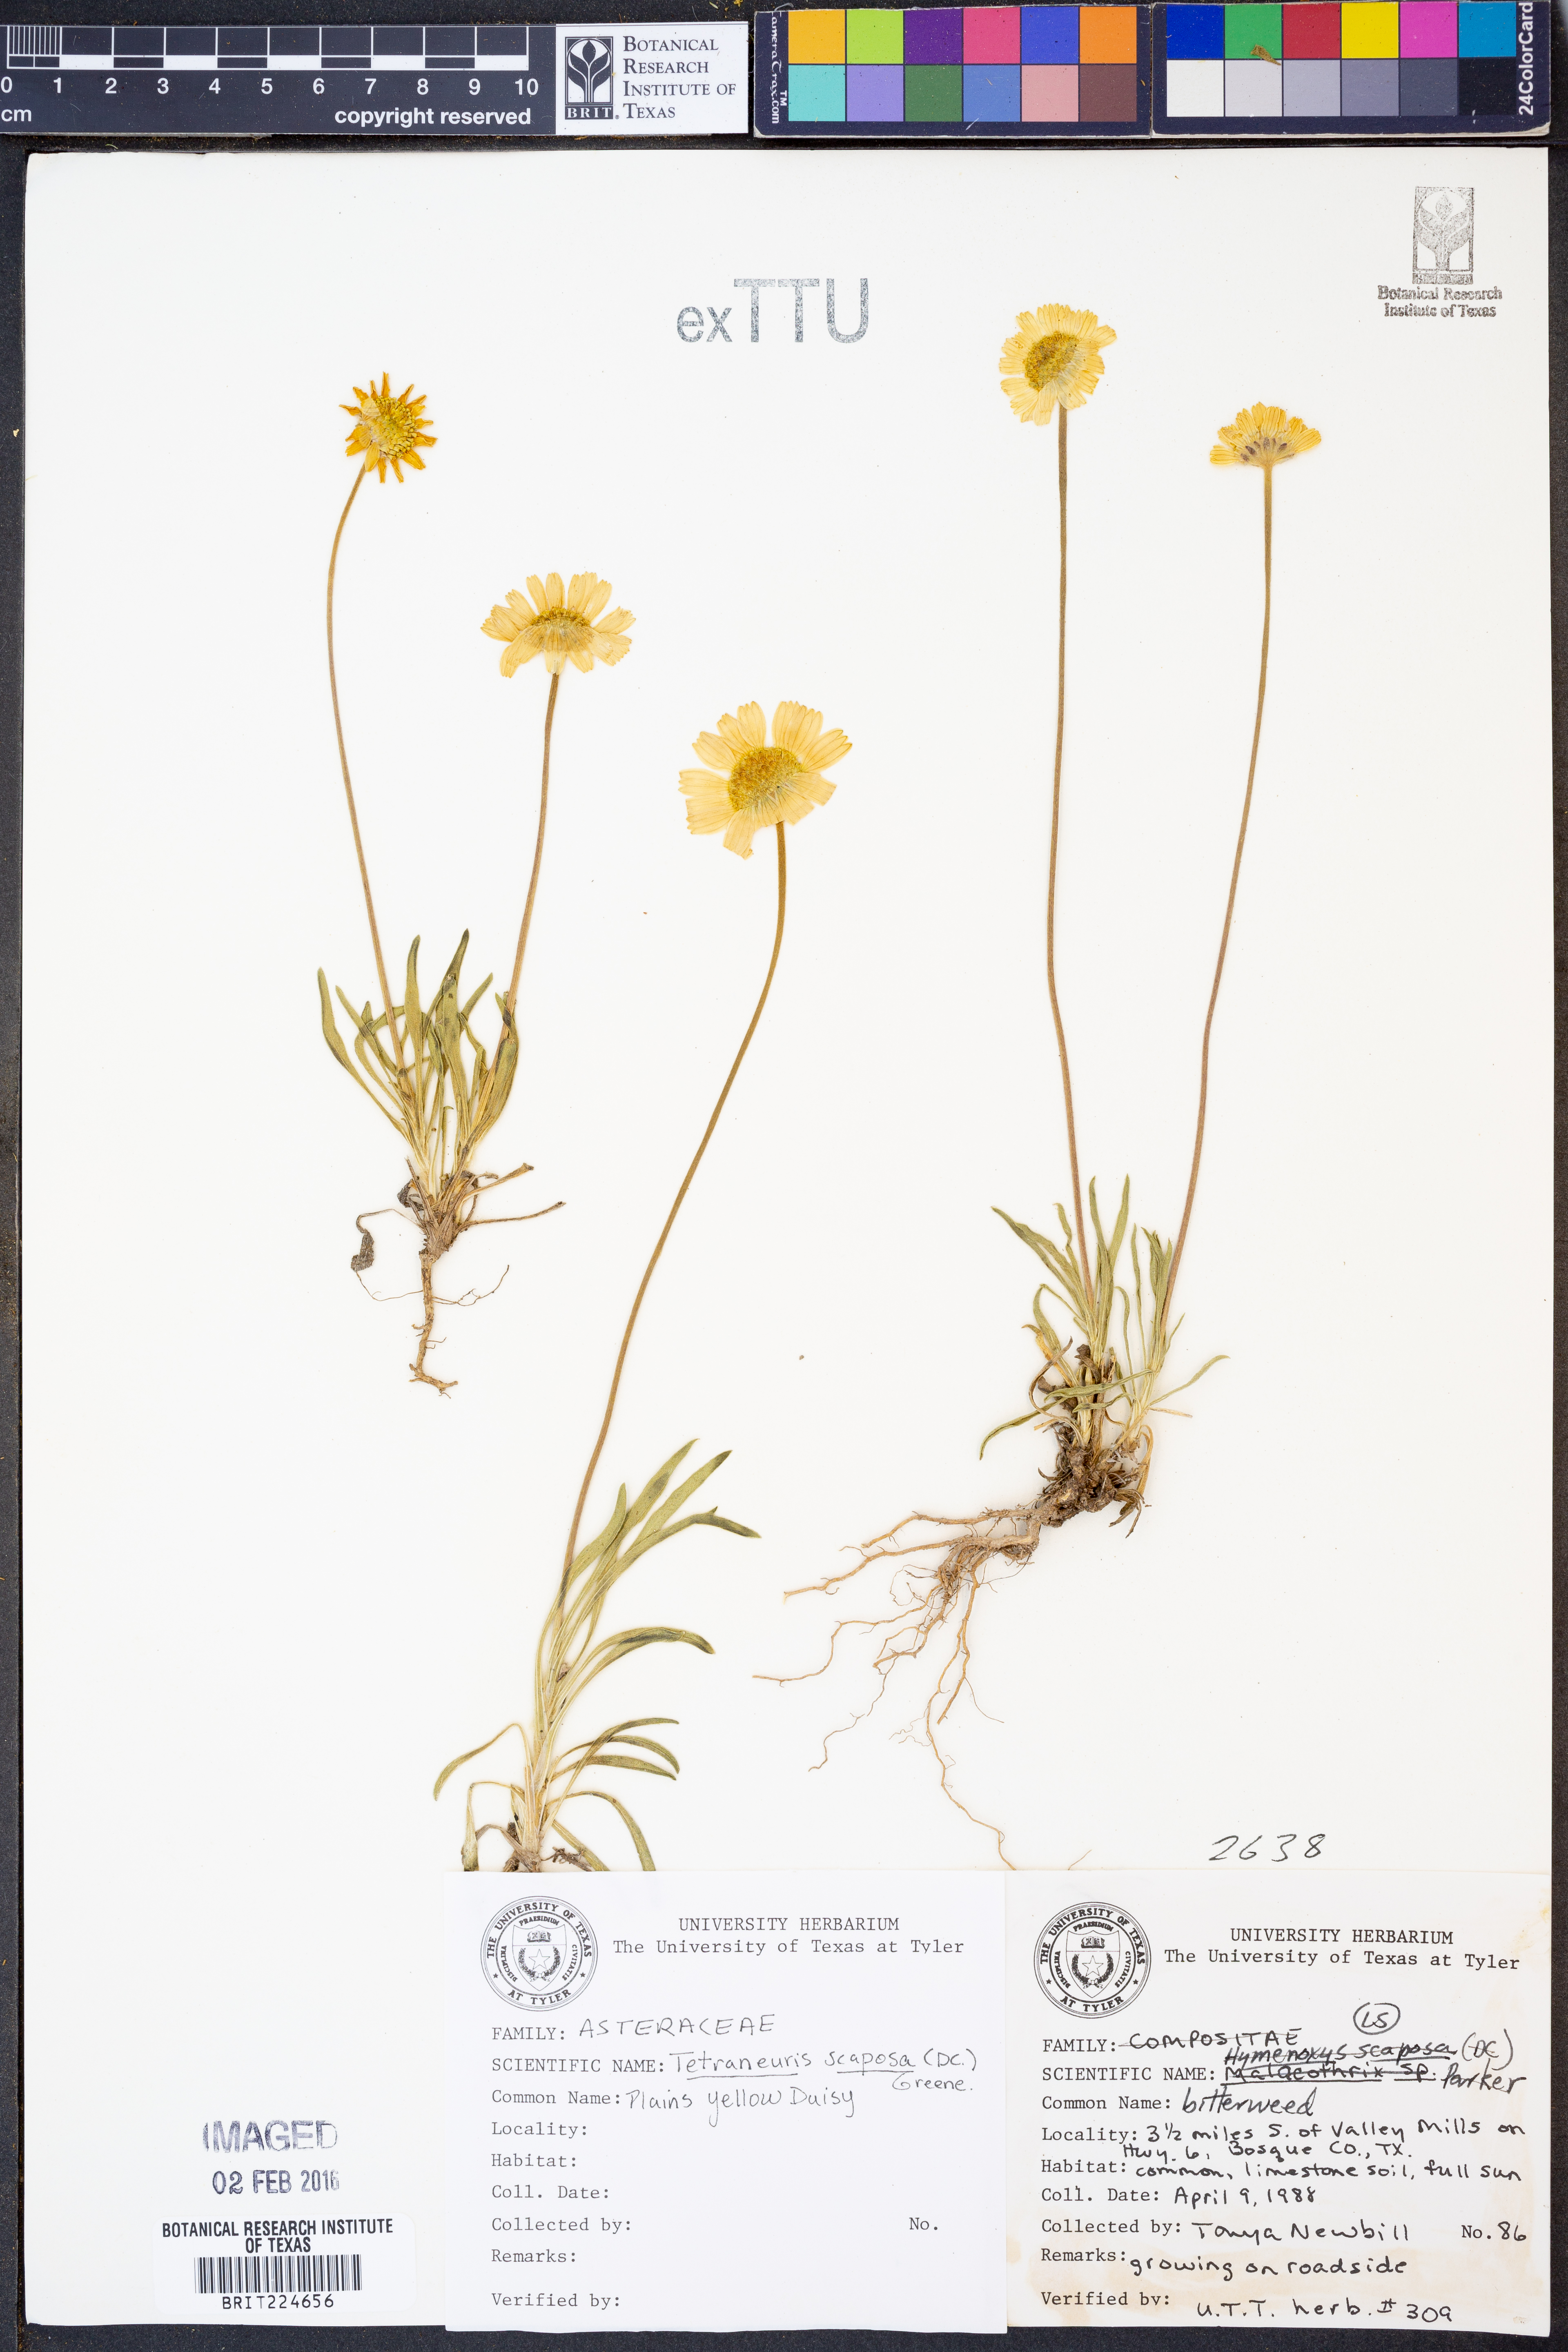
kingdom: Plantae
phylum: Tracheophyta
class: Magnoliopsida
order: Asterales
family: Asteraceae
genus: Tetraneuris
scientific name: Tetraneuris scaposa
